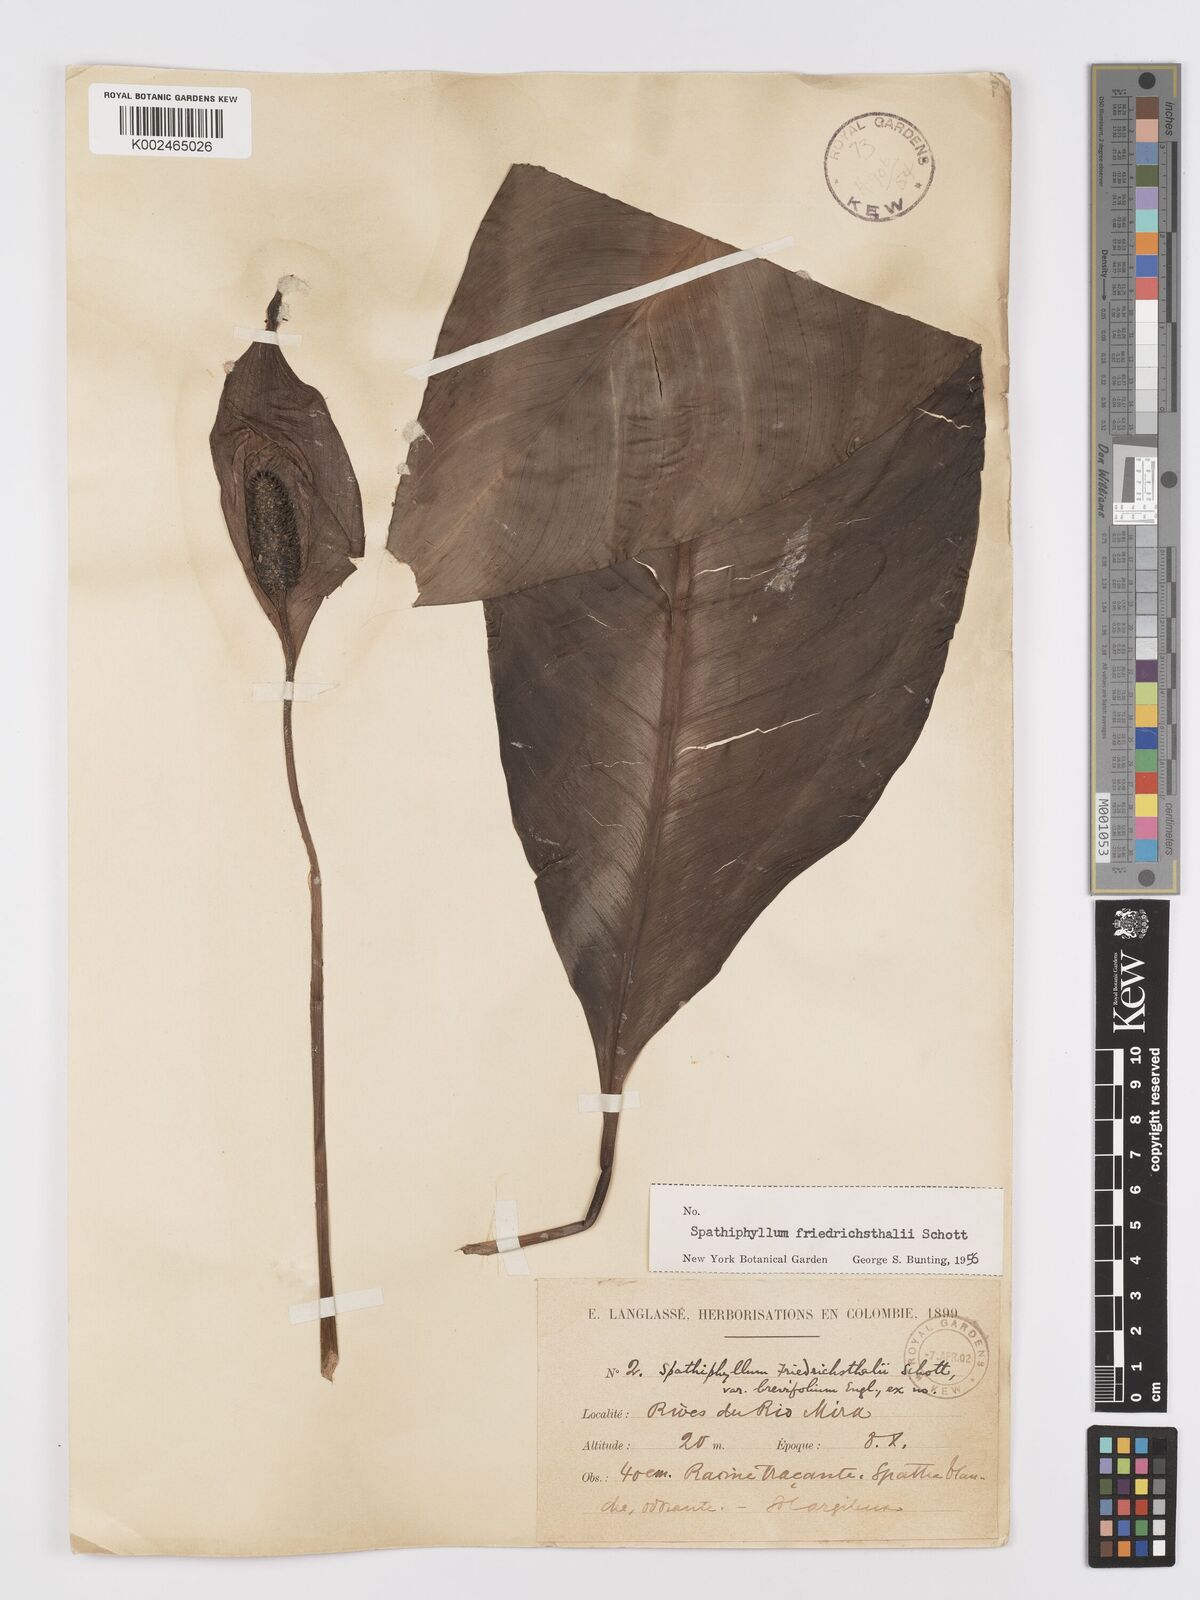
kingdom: Plantae
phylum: Tracheophyta
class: Liliopsida
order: Alismatales
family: Araceae
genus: Spathiphyllum
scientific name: Spathiphyllum friedrichsthalii
